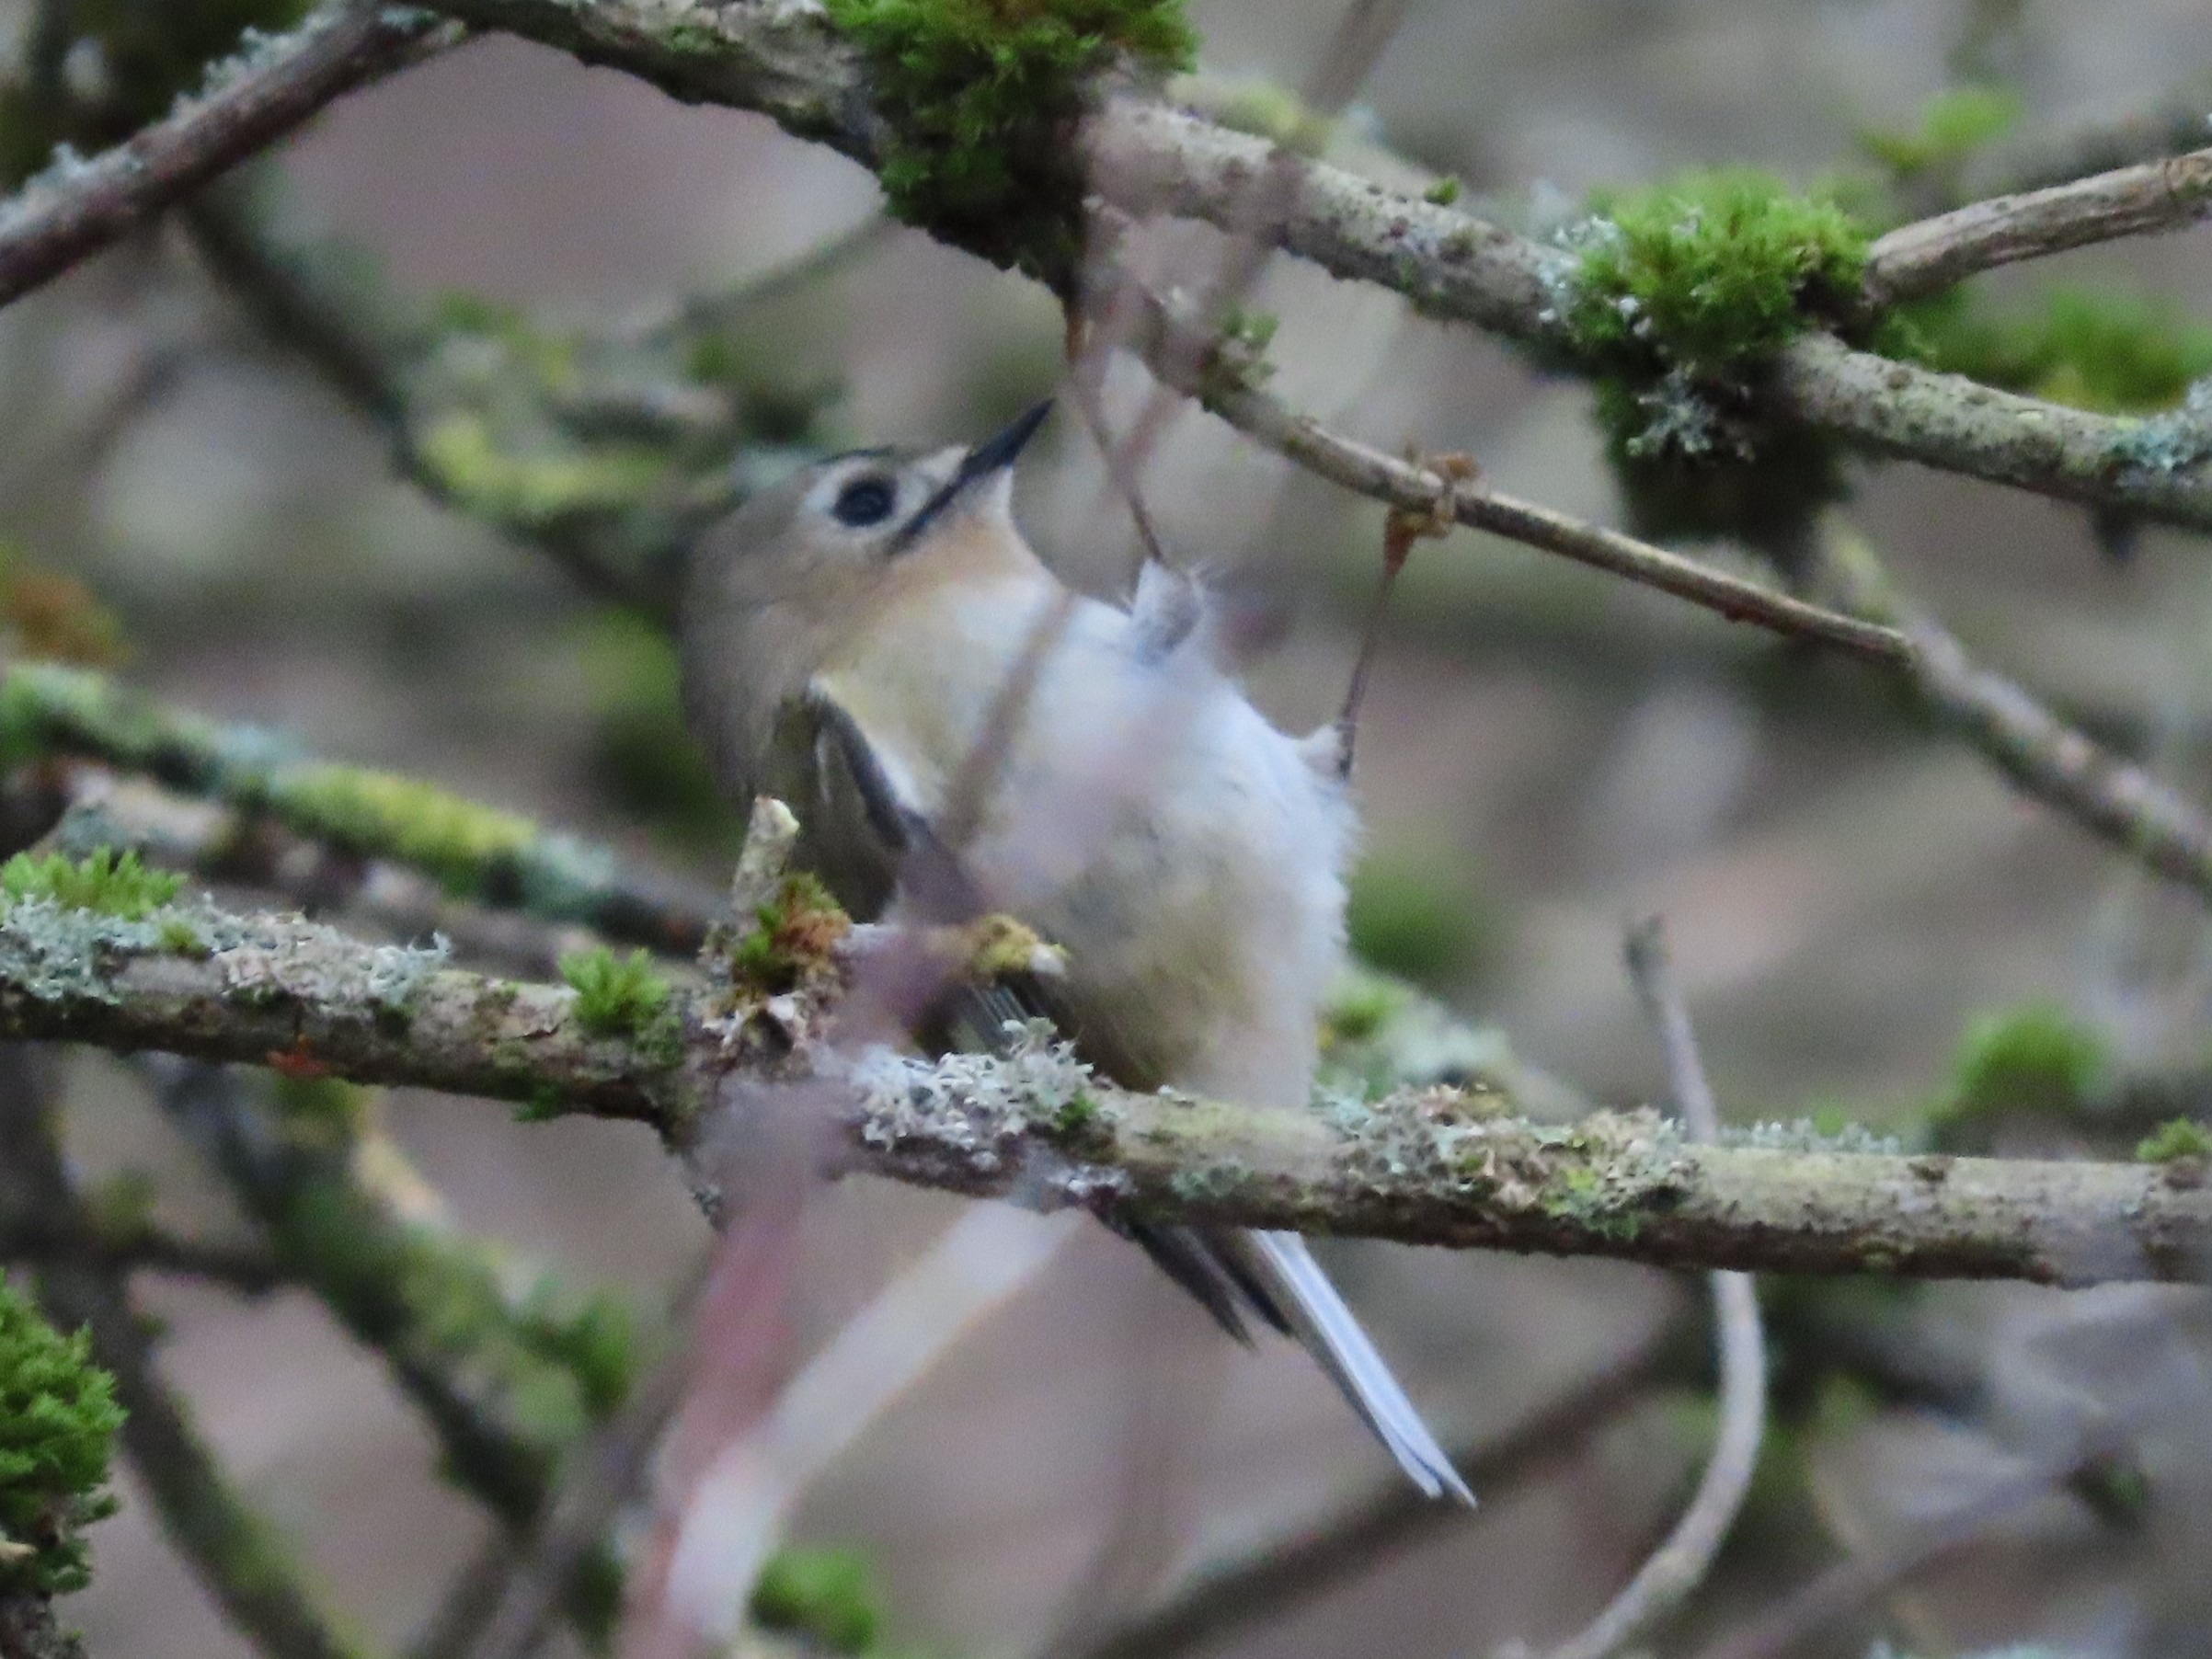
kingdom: Animalia
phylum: Chordata
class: Aves
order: Passeriformes
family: Regulidae
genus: Regulus
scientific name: Regulus regulus
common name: Fuglekonge
